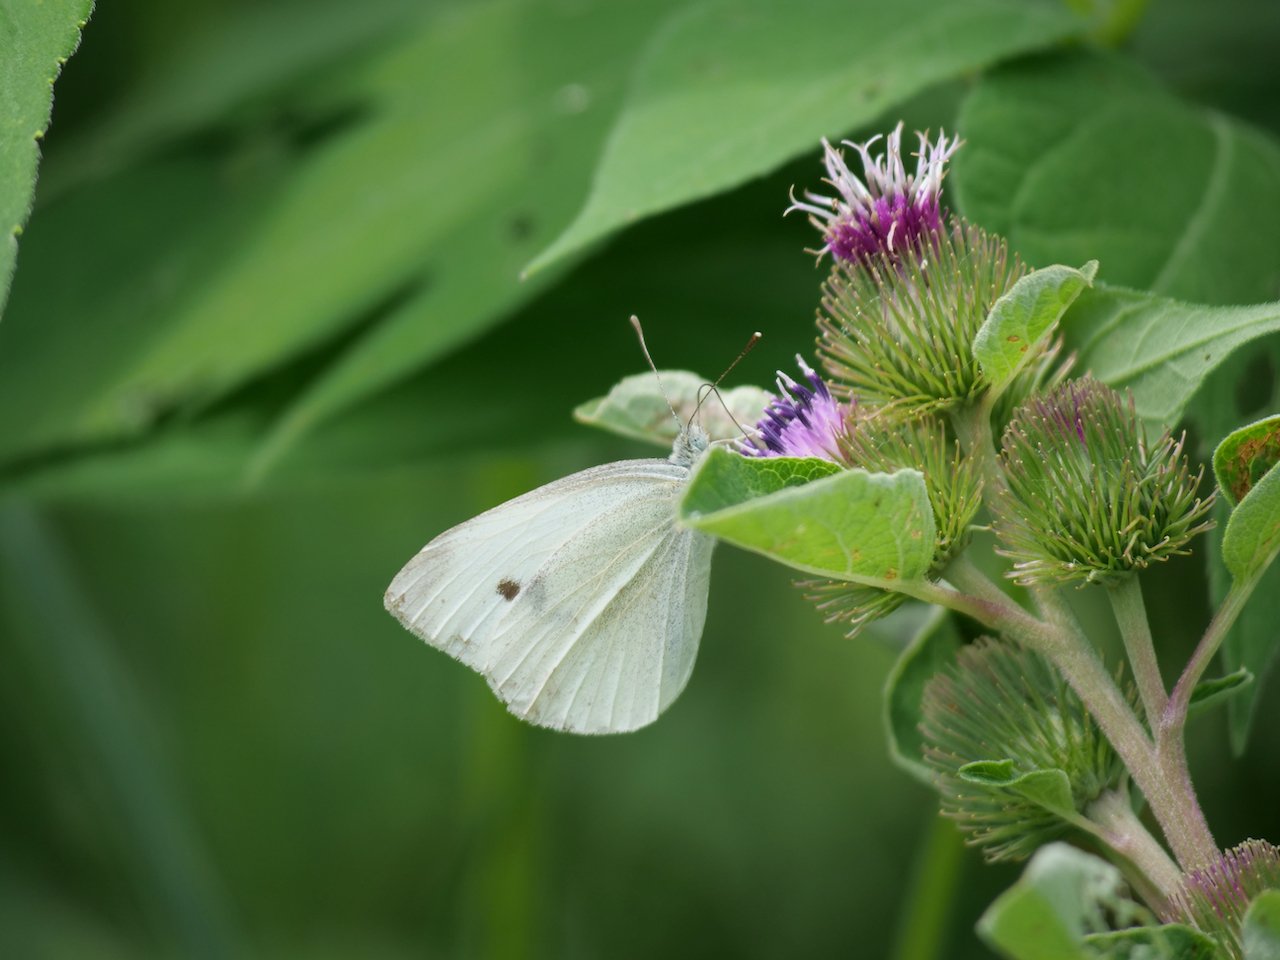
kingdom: Animalia
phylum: Arthropoda
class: Insecta
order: Lepidoptera
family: Pieridae
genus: Pieris
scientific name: Pieris rapae
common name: Cabbage White
